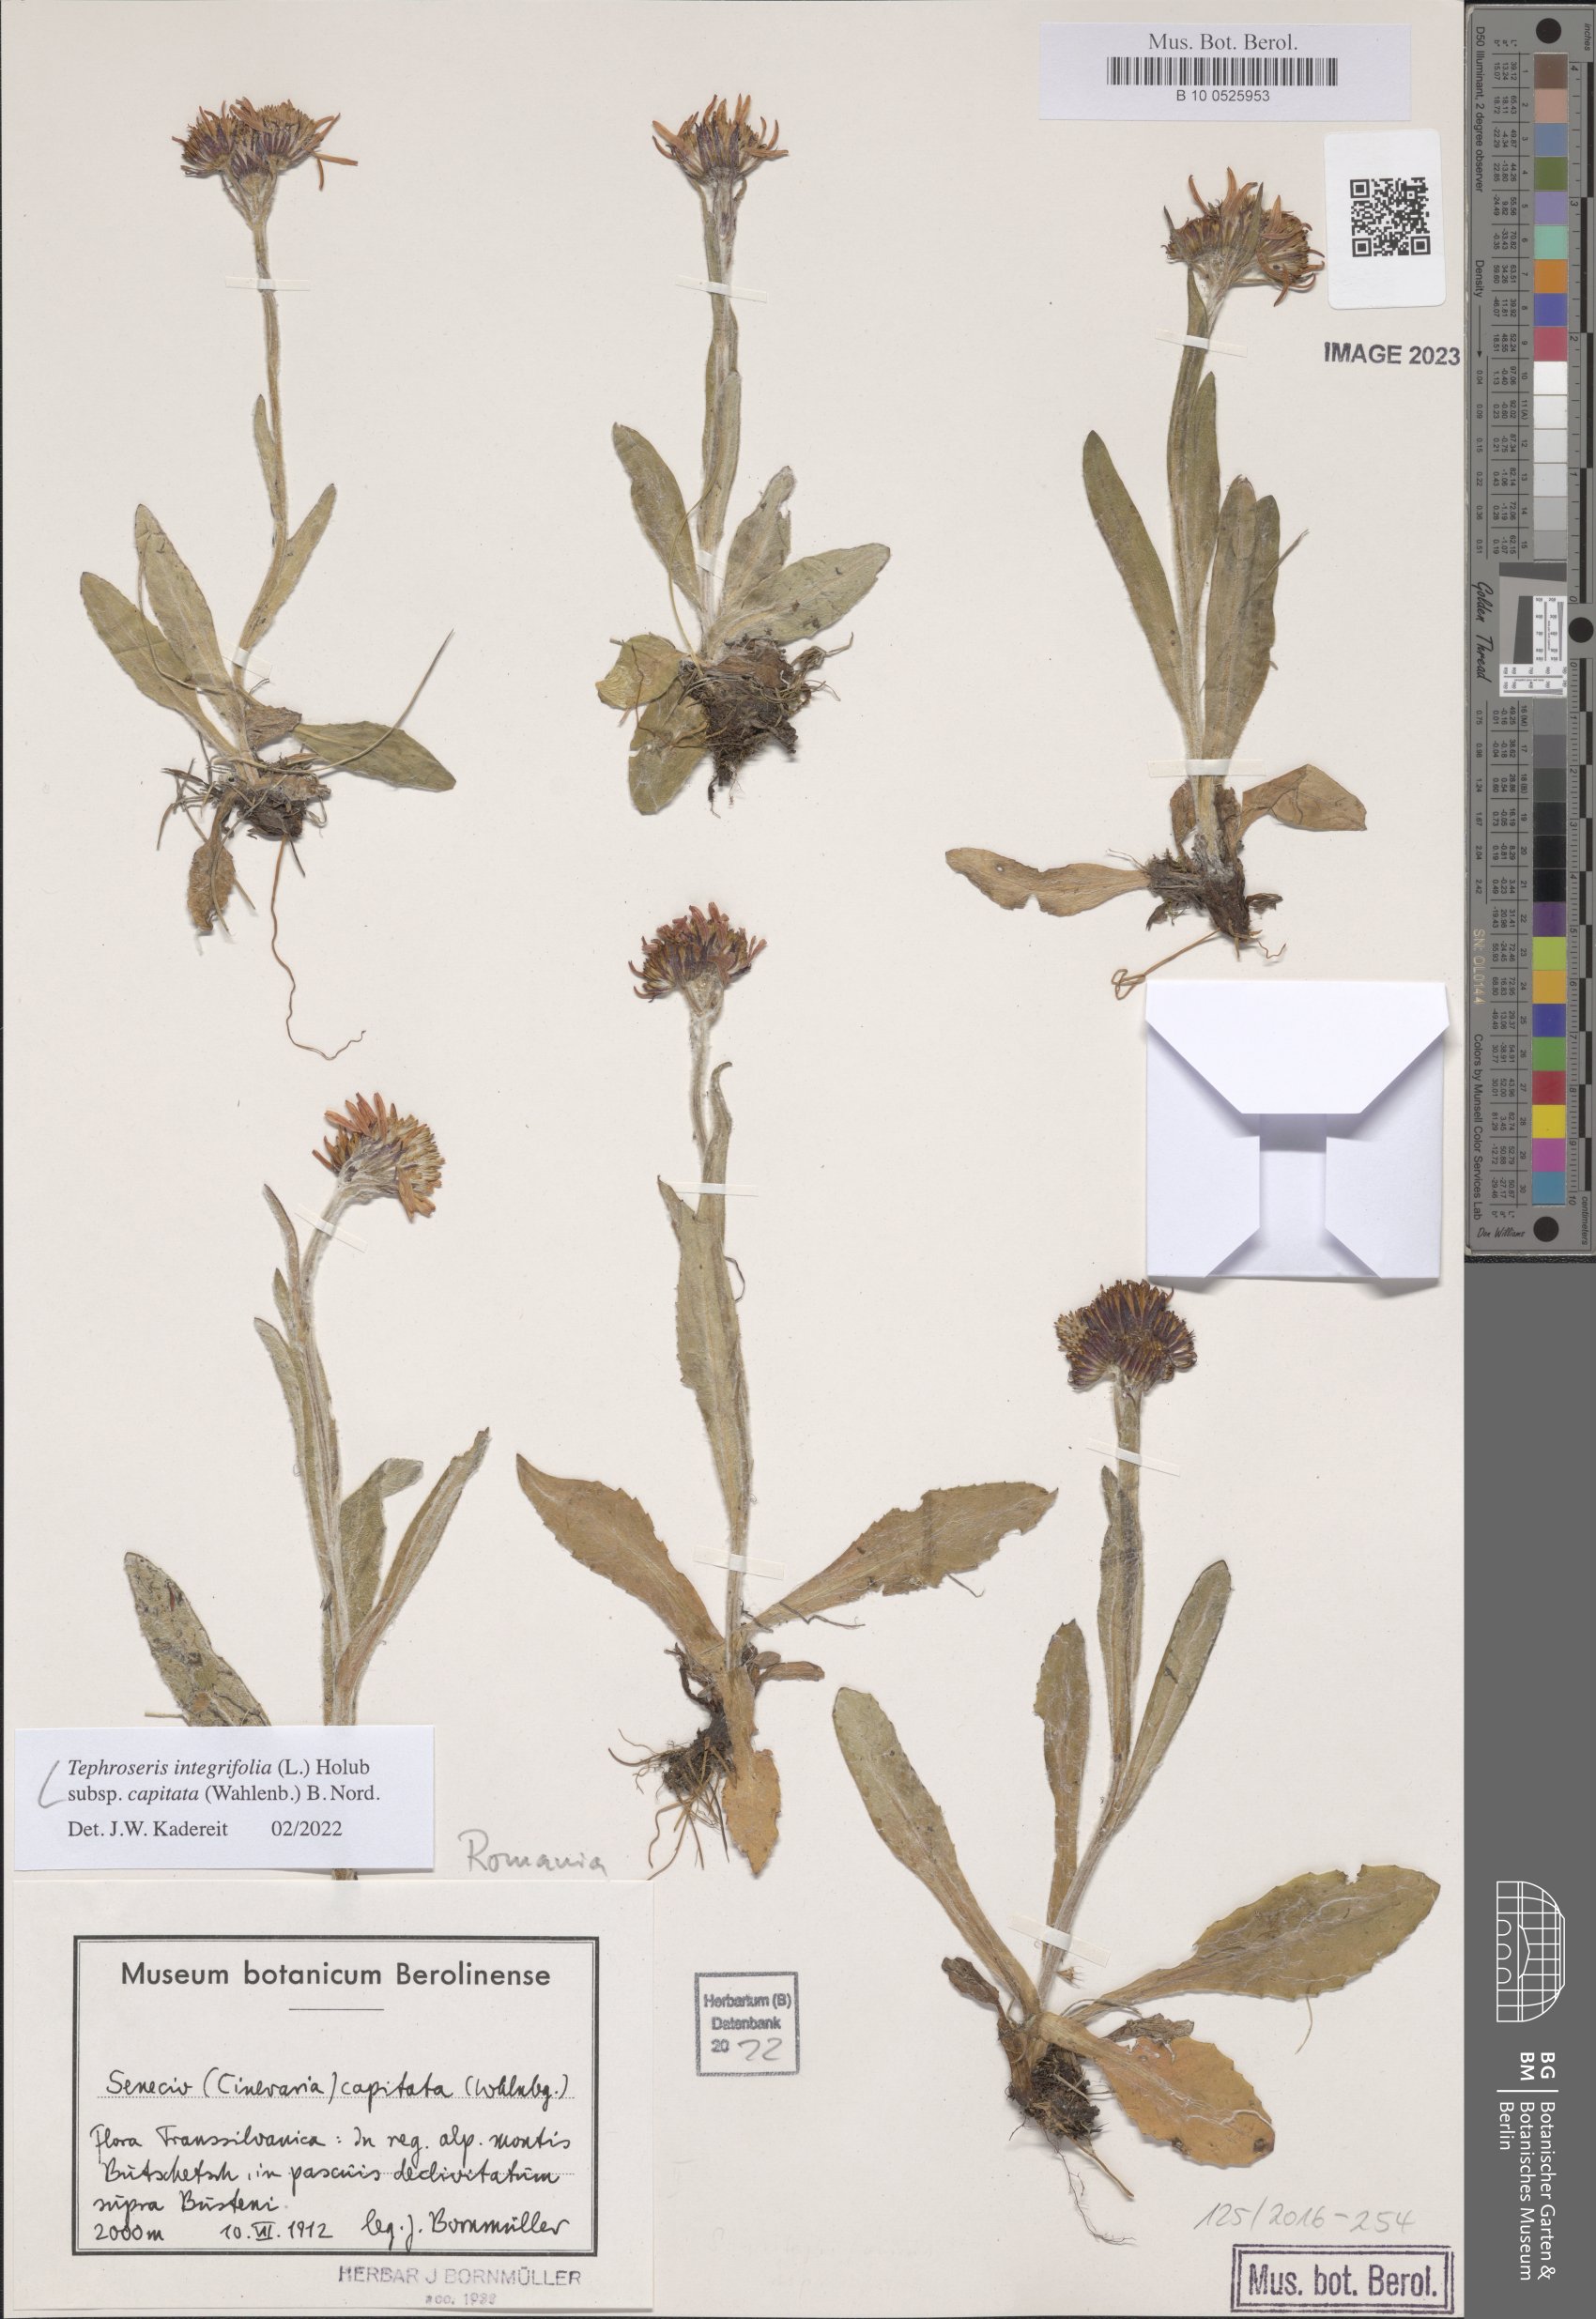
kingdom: Plantae
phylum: Tracheophyta
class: Magnoliopsida
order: Asterales
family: Asteraceae
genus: Tephroseris
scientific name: Tephroseris integrifolia
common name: Field fleawort
